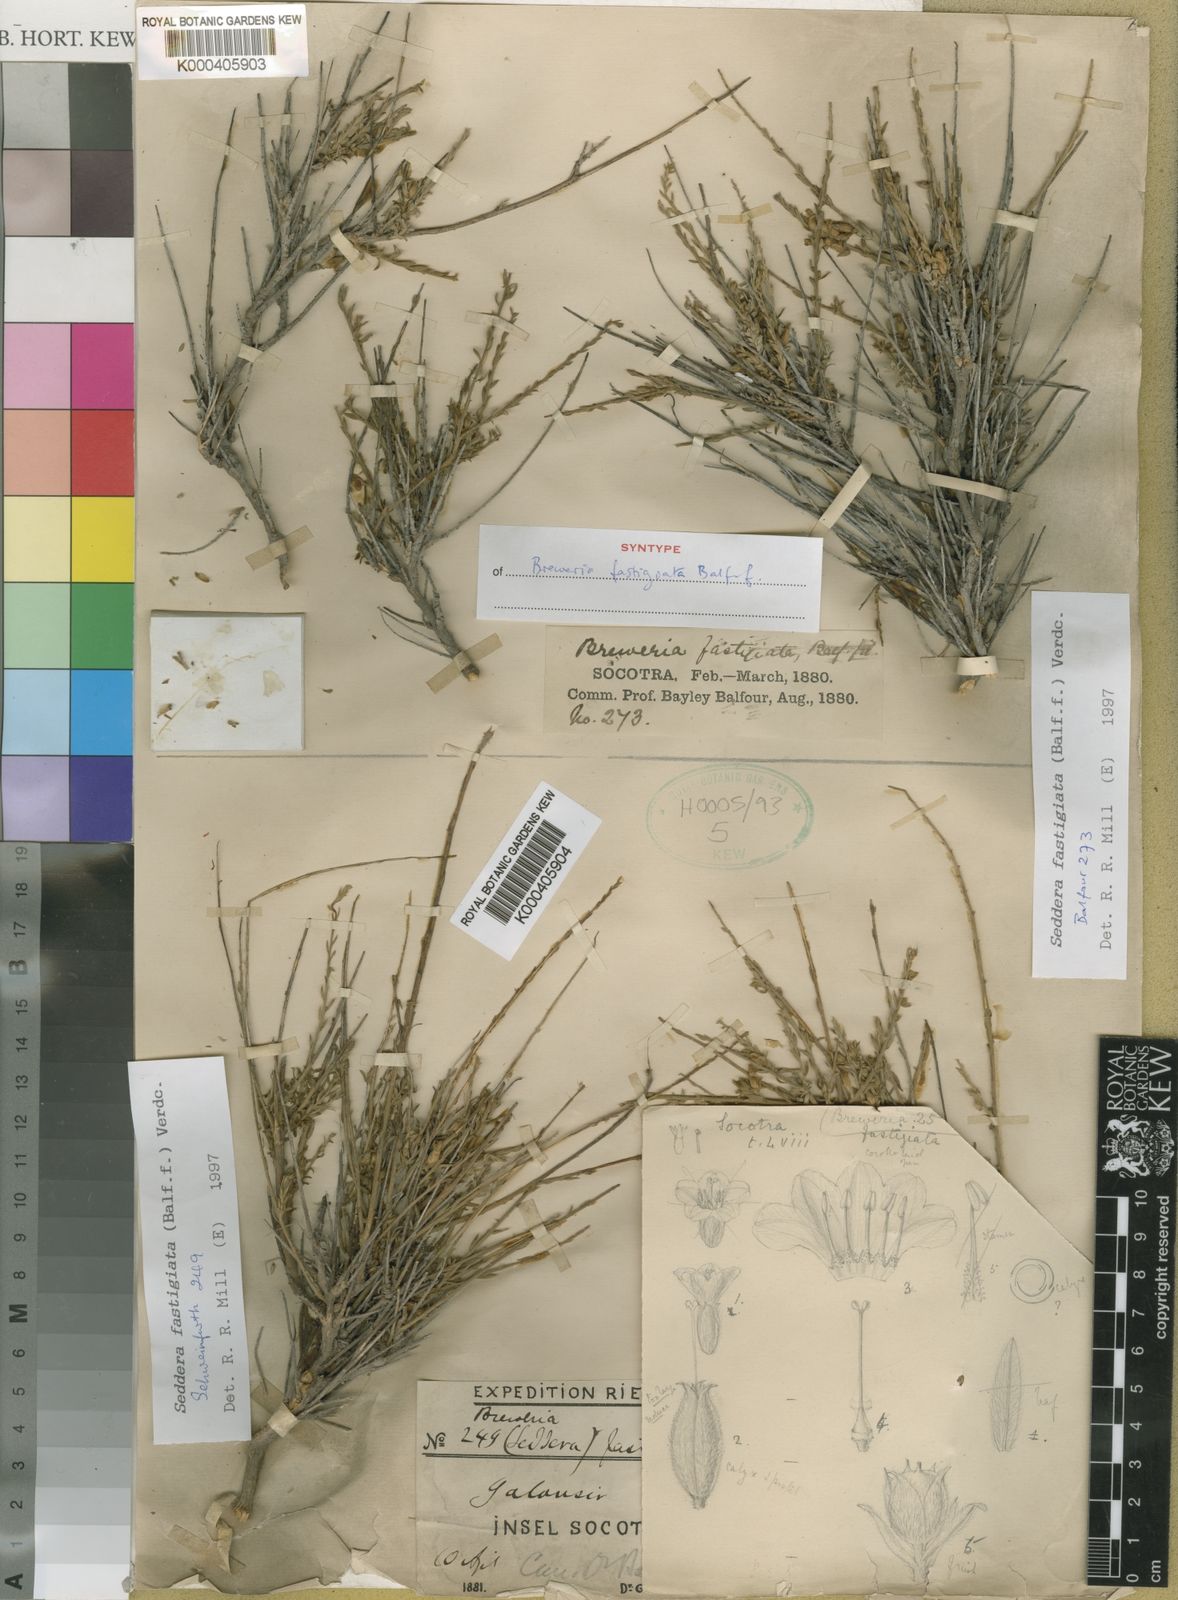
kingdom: Plantae
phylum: Tracheophyta
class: Magnoliopsida
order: Solanales
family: Convolvulaceae
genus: Convolvulus
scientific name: Convolvulus socotranus
